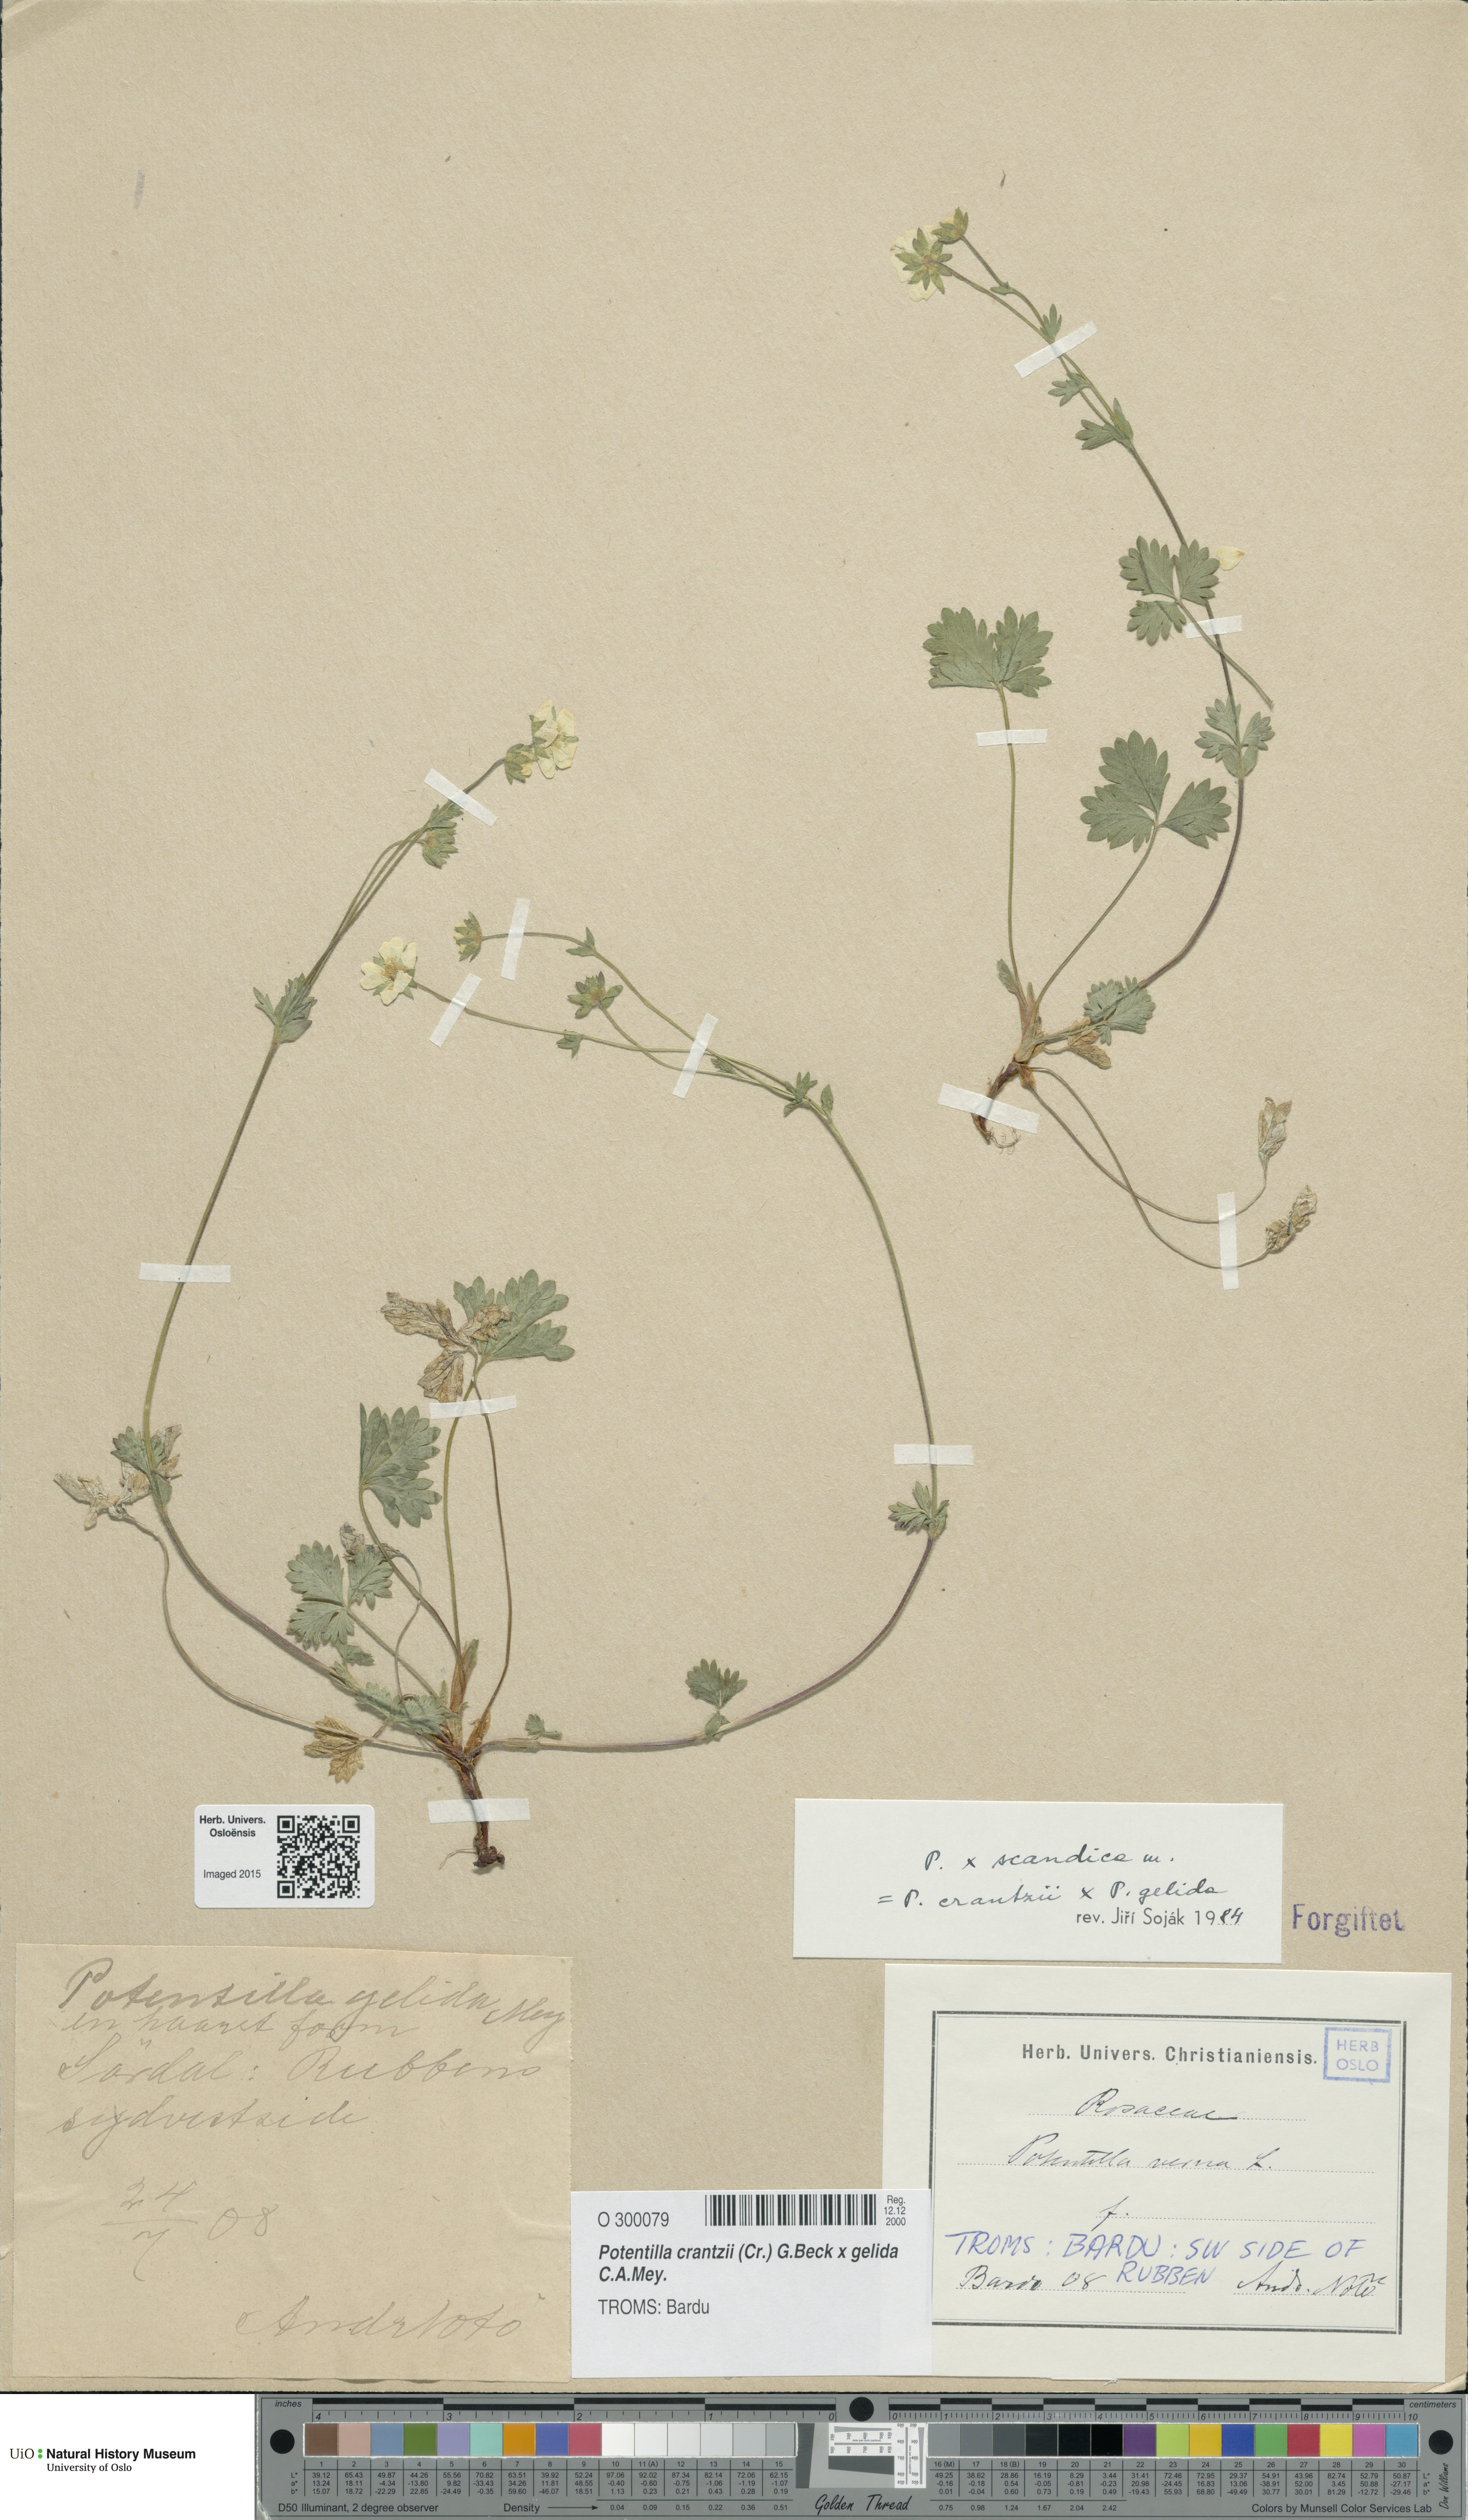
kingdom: Plantae
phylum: Tracheophyta
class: Magnoliopsida
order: Rosales
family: Rosaceae
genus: Potentilla
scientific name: Potentilla
